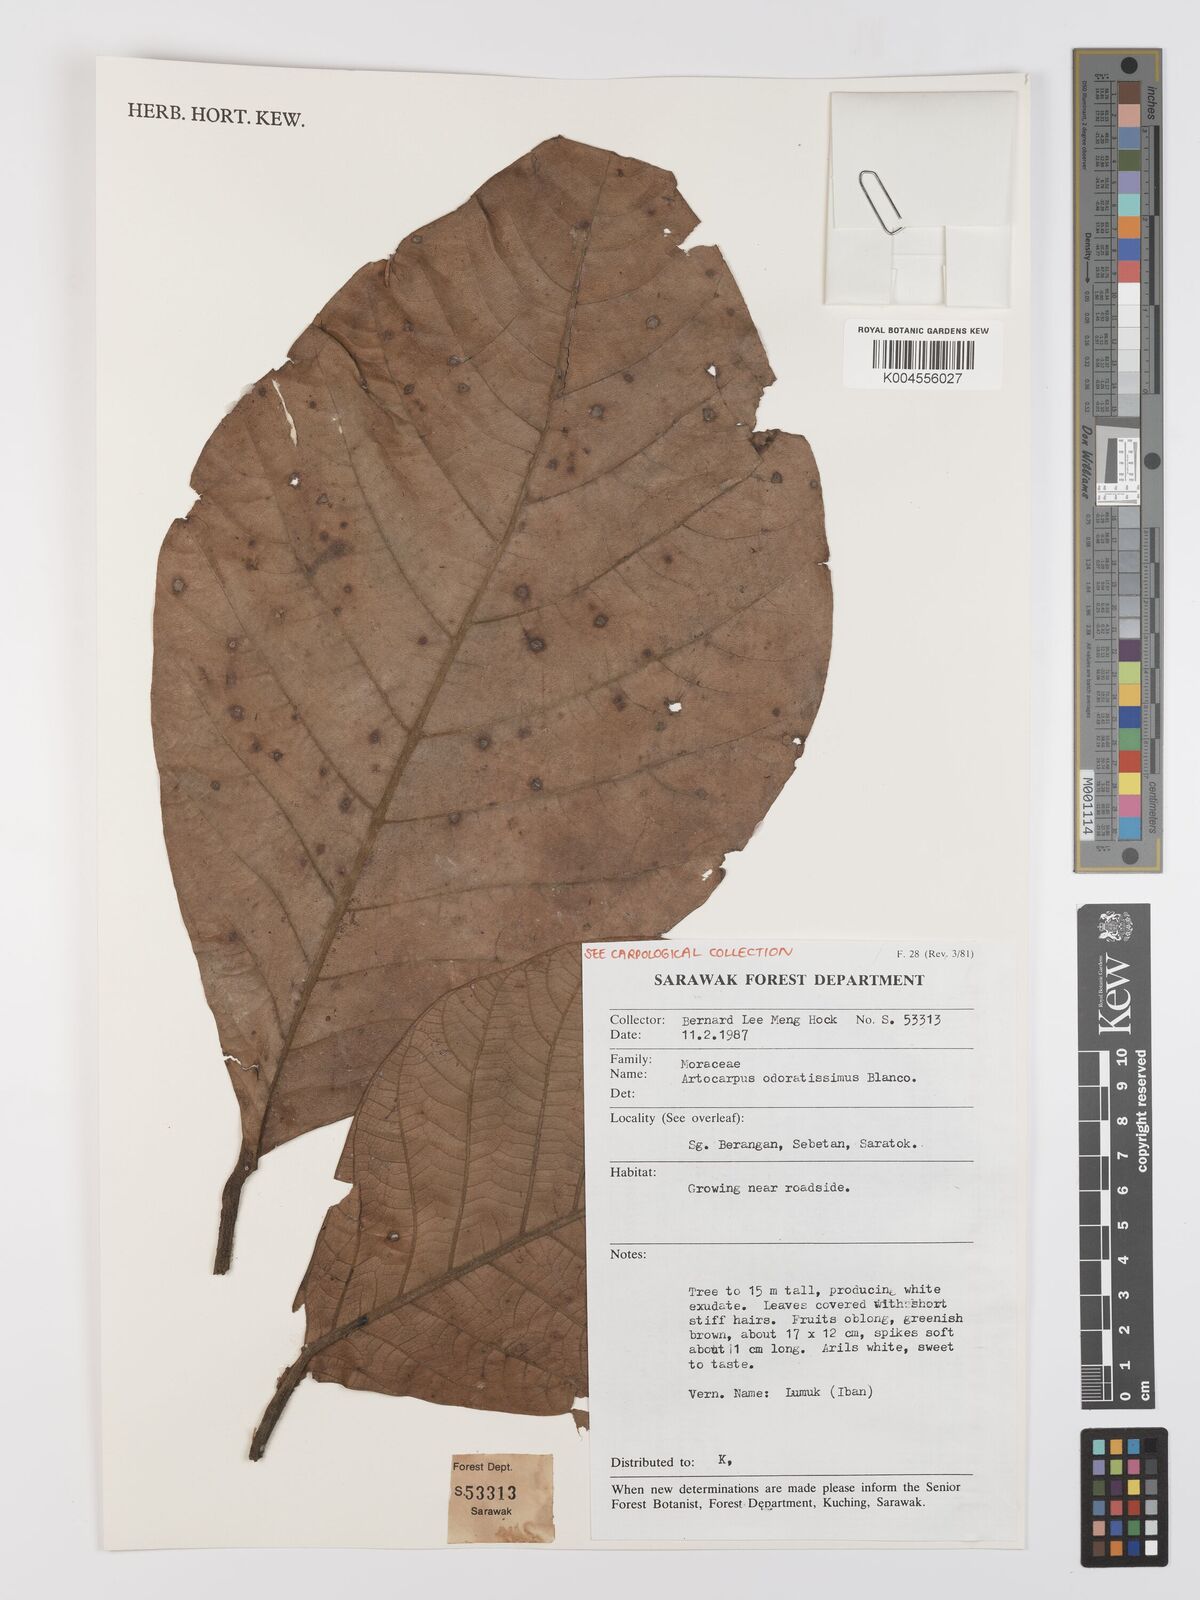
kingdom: Plantae
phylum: Tracheophyta
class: Magnoliopsida
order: Rosales
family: Moraceae
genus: Artocarpus
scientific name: Artocarpus odoratissimus
